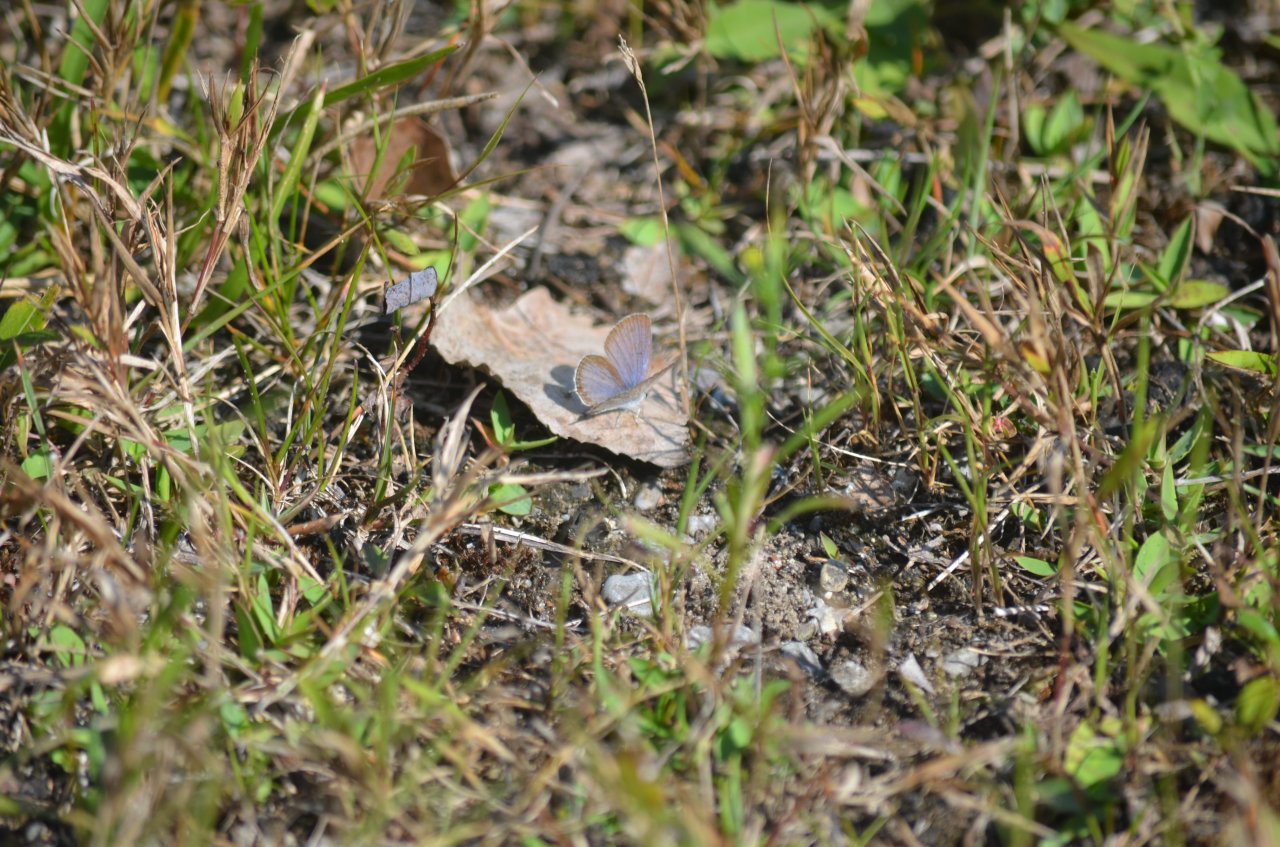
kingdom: Animalia
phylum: Arthropoda
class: Insecta
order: Lepidoptera
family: Lycaenidae
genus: Elkalyce
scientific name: Elkalyce comyntas
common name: Eastern Tailed-Blue
